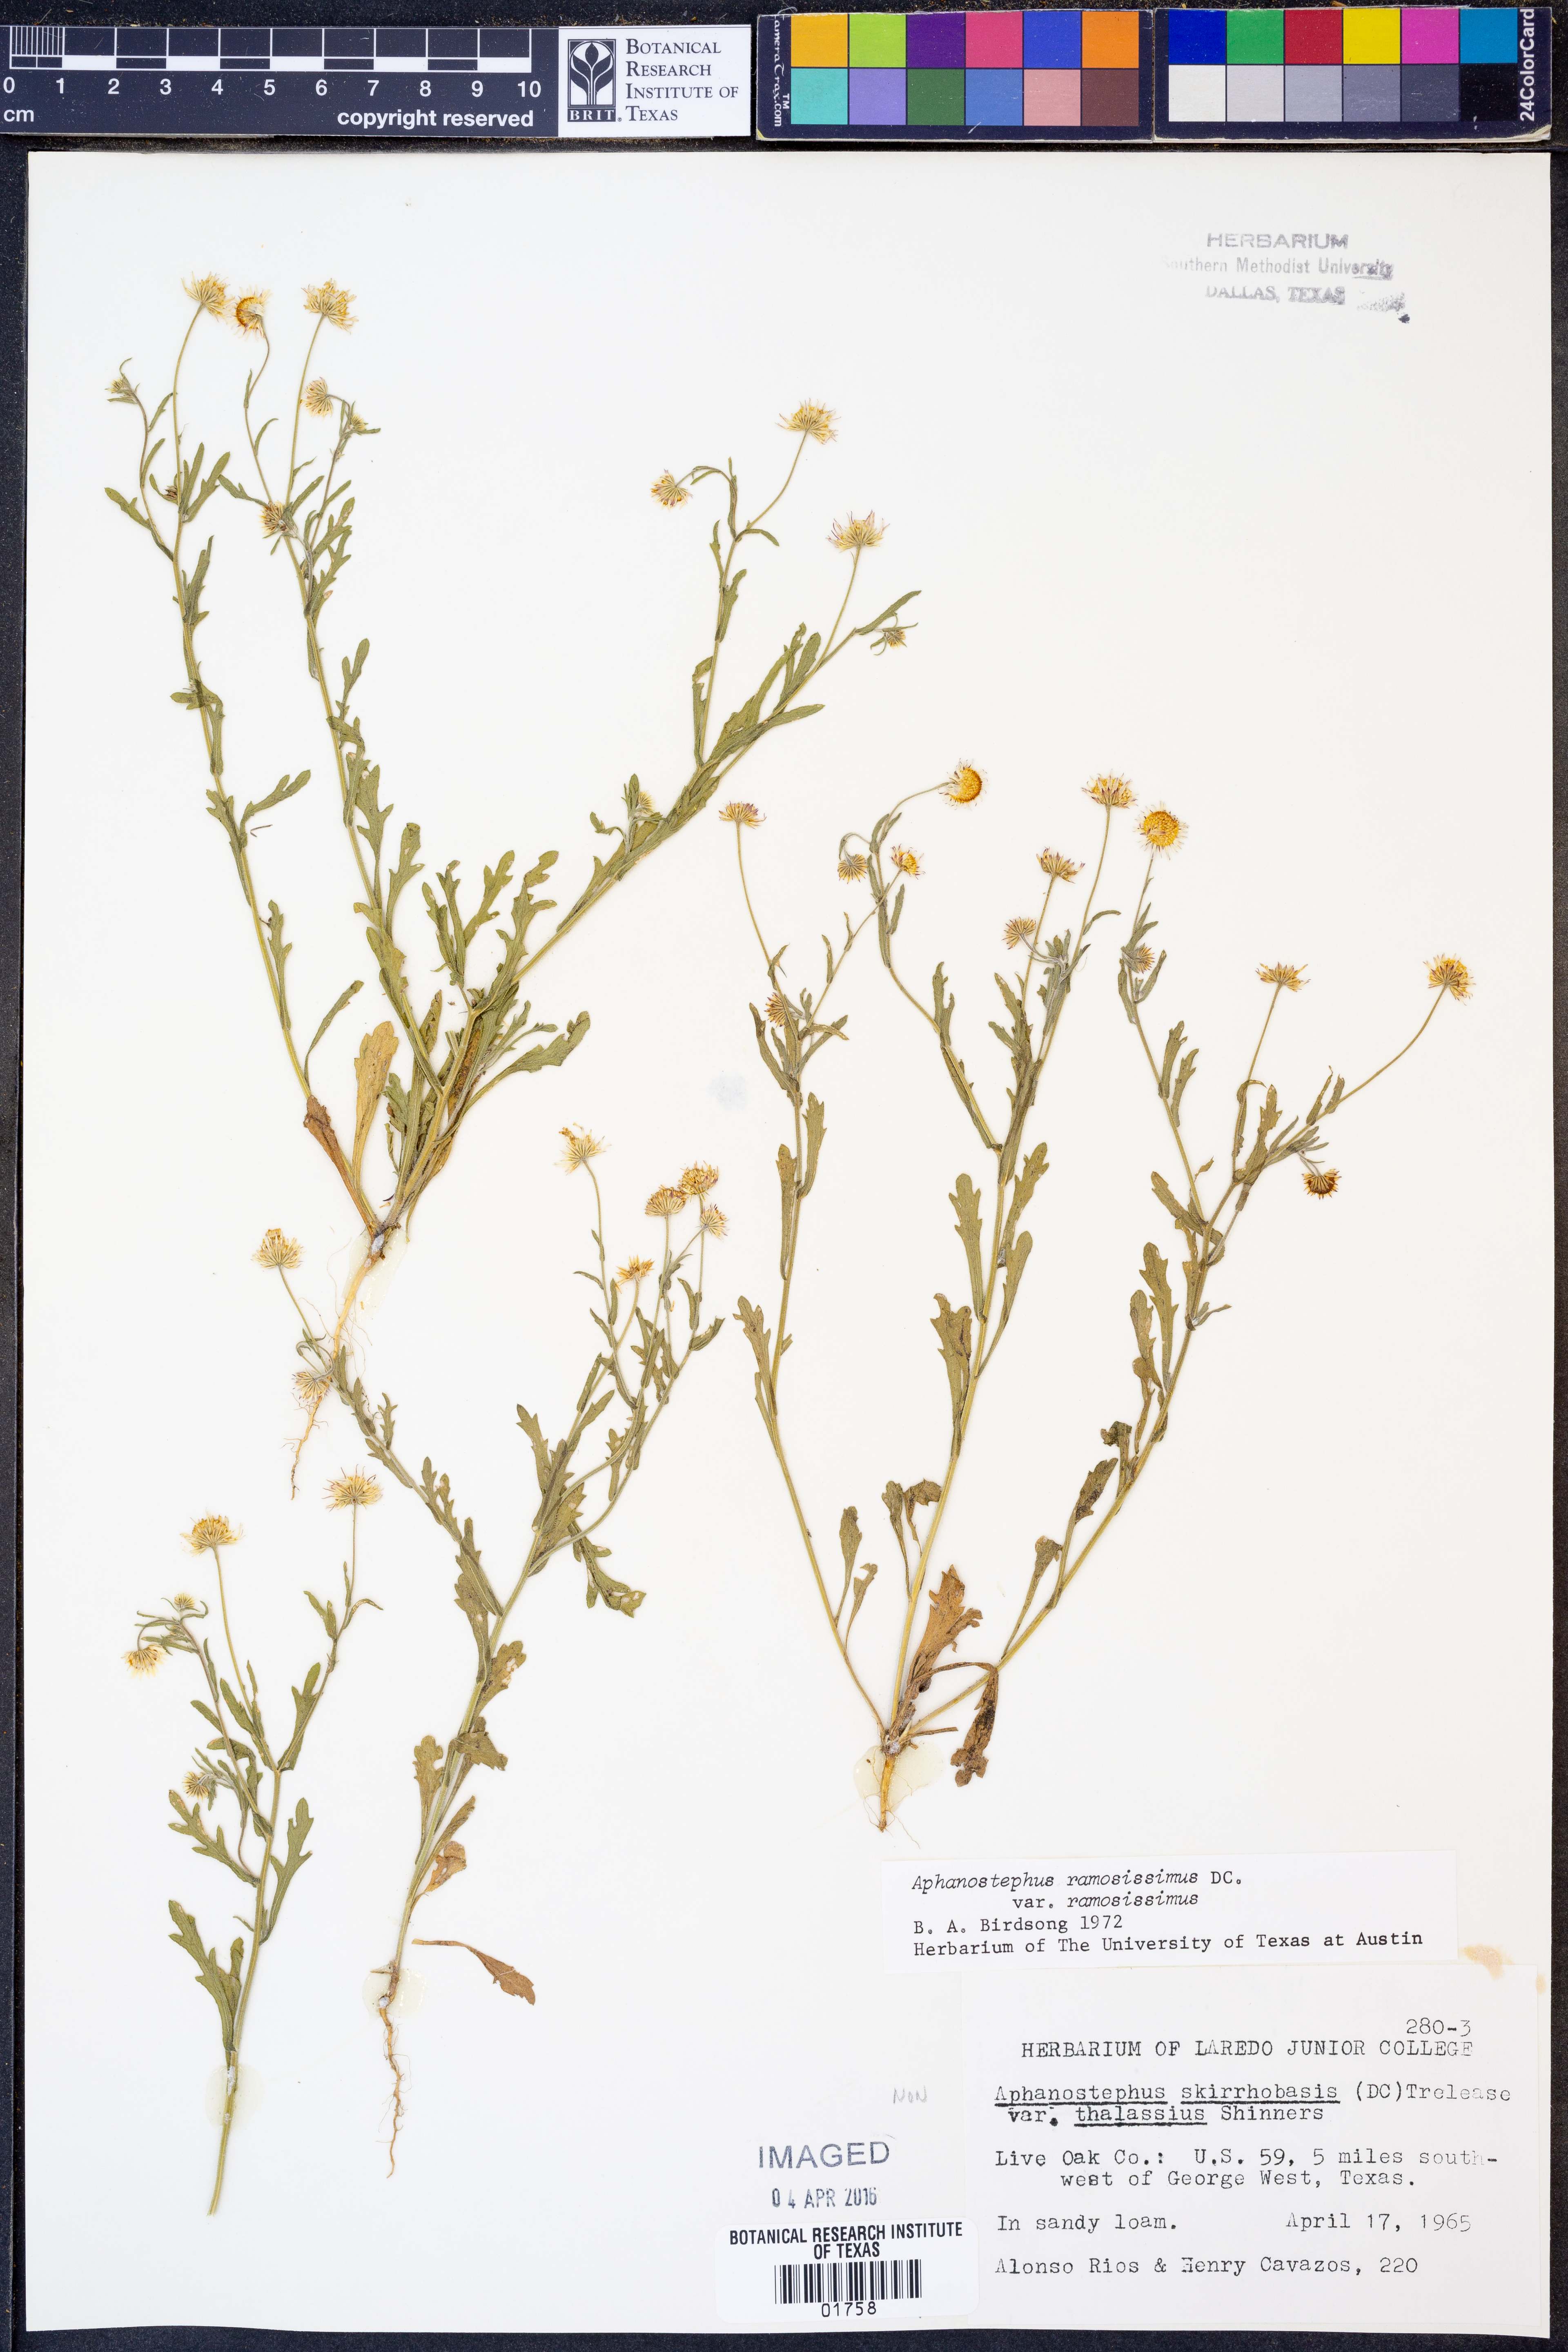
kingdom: Plantae
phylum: Tracheophyta
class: Magnoliopsida
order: Asterales
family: Asteraceae
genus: Aphanostephus
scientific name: Aphanostephus ramosissimus
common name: Plains lazy daisy
